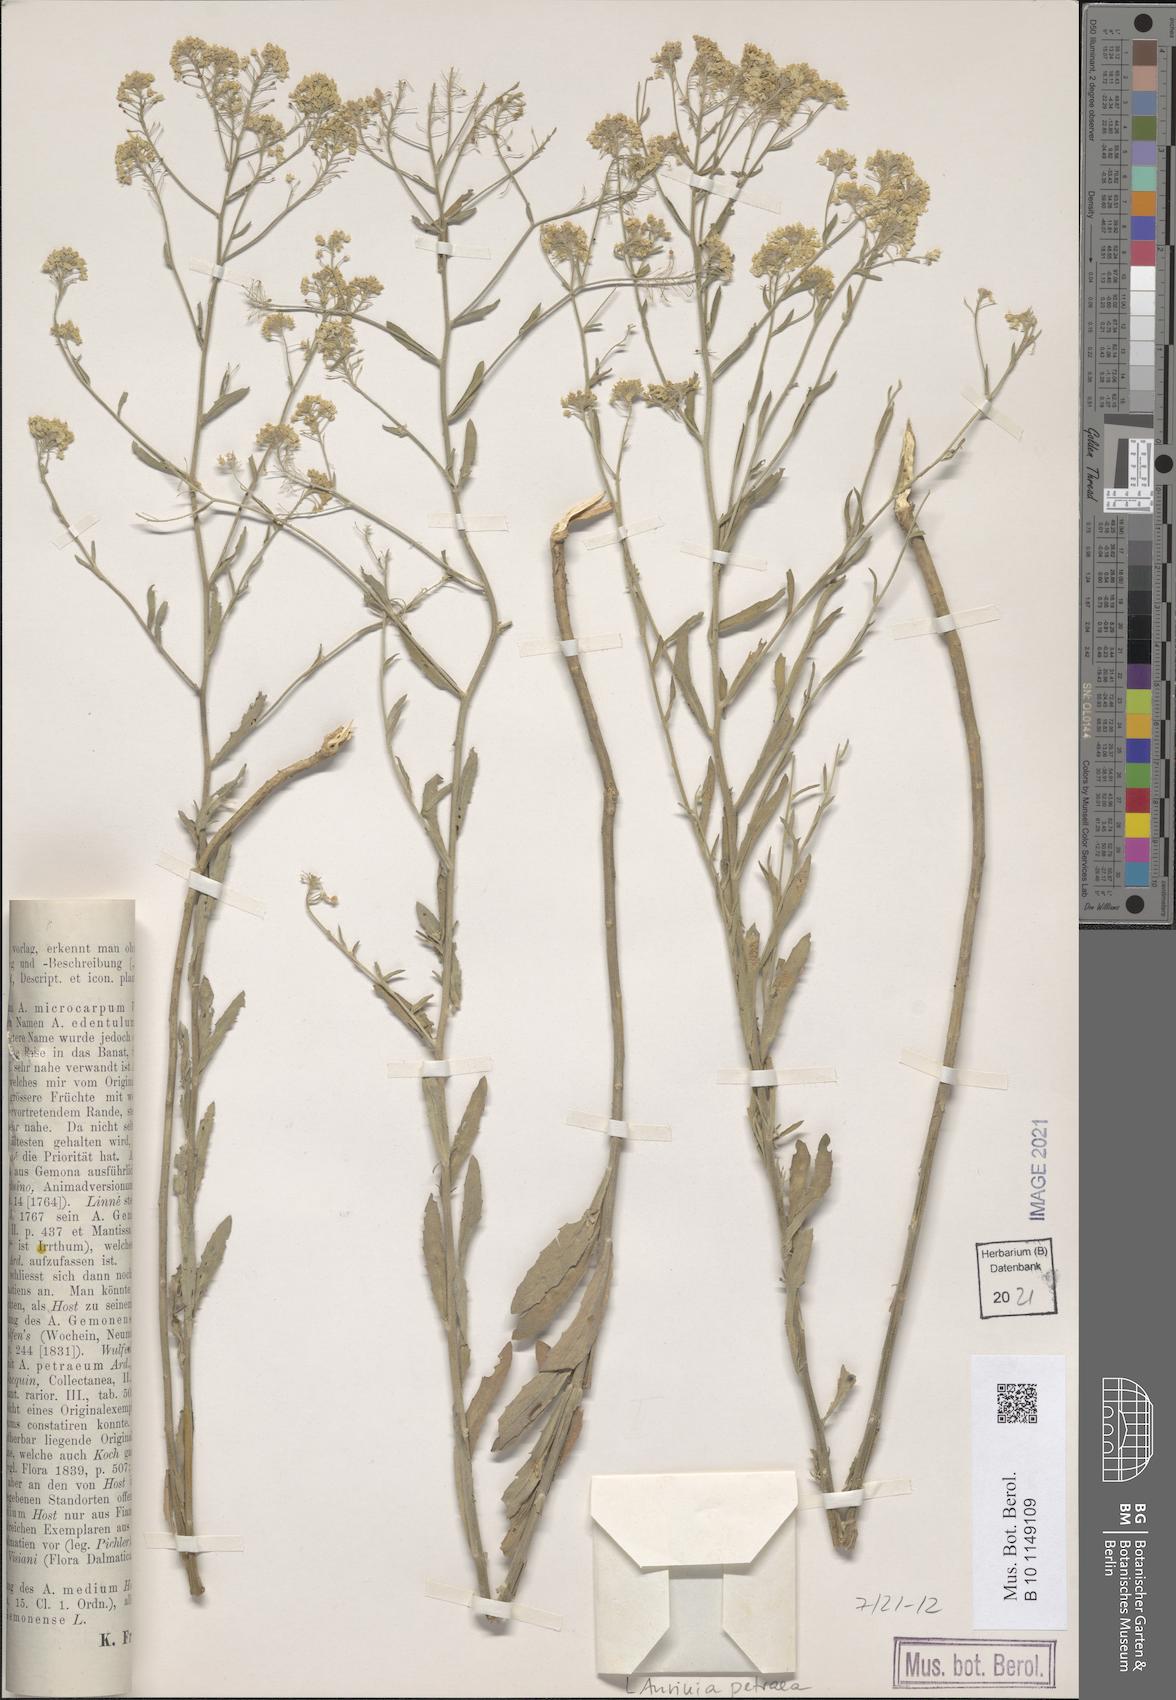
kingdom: Plantae
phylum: Tracheophyta
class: Magnoliopsida
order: Brassicales
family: Brassicaceae
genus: Aurinia
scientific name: Aurinia petraea
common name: Goldentuft
